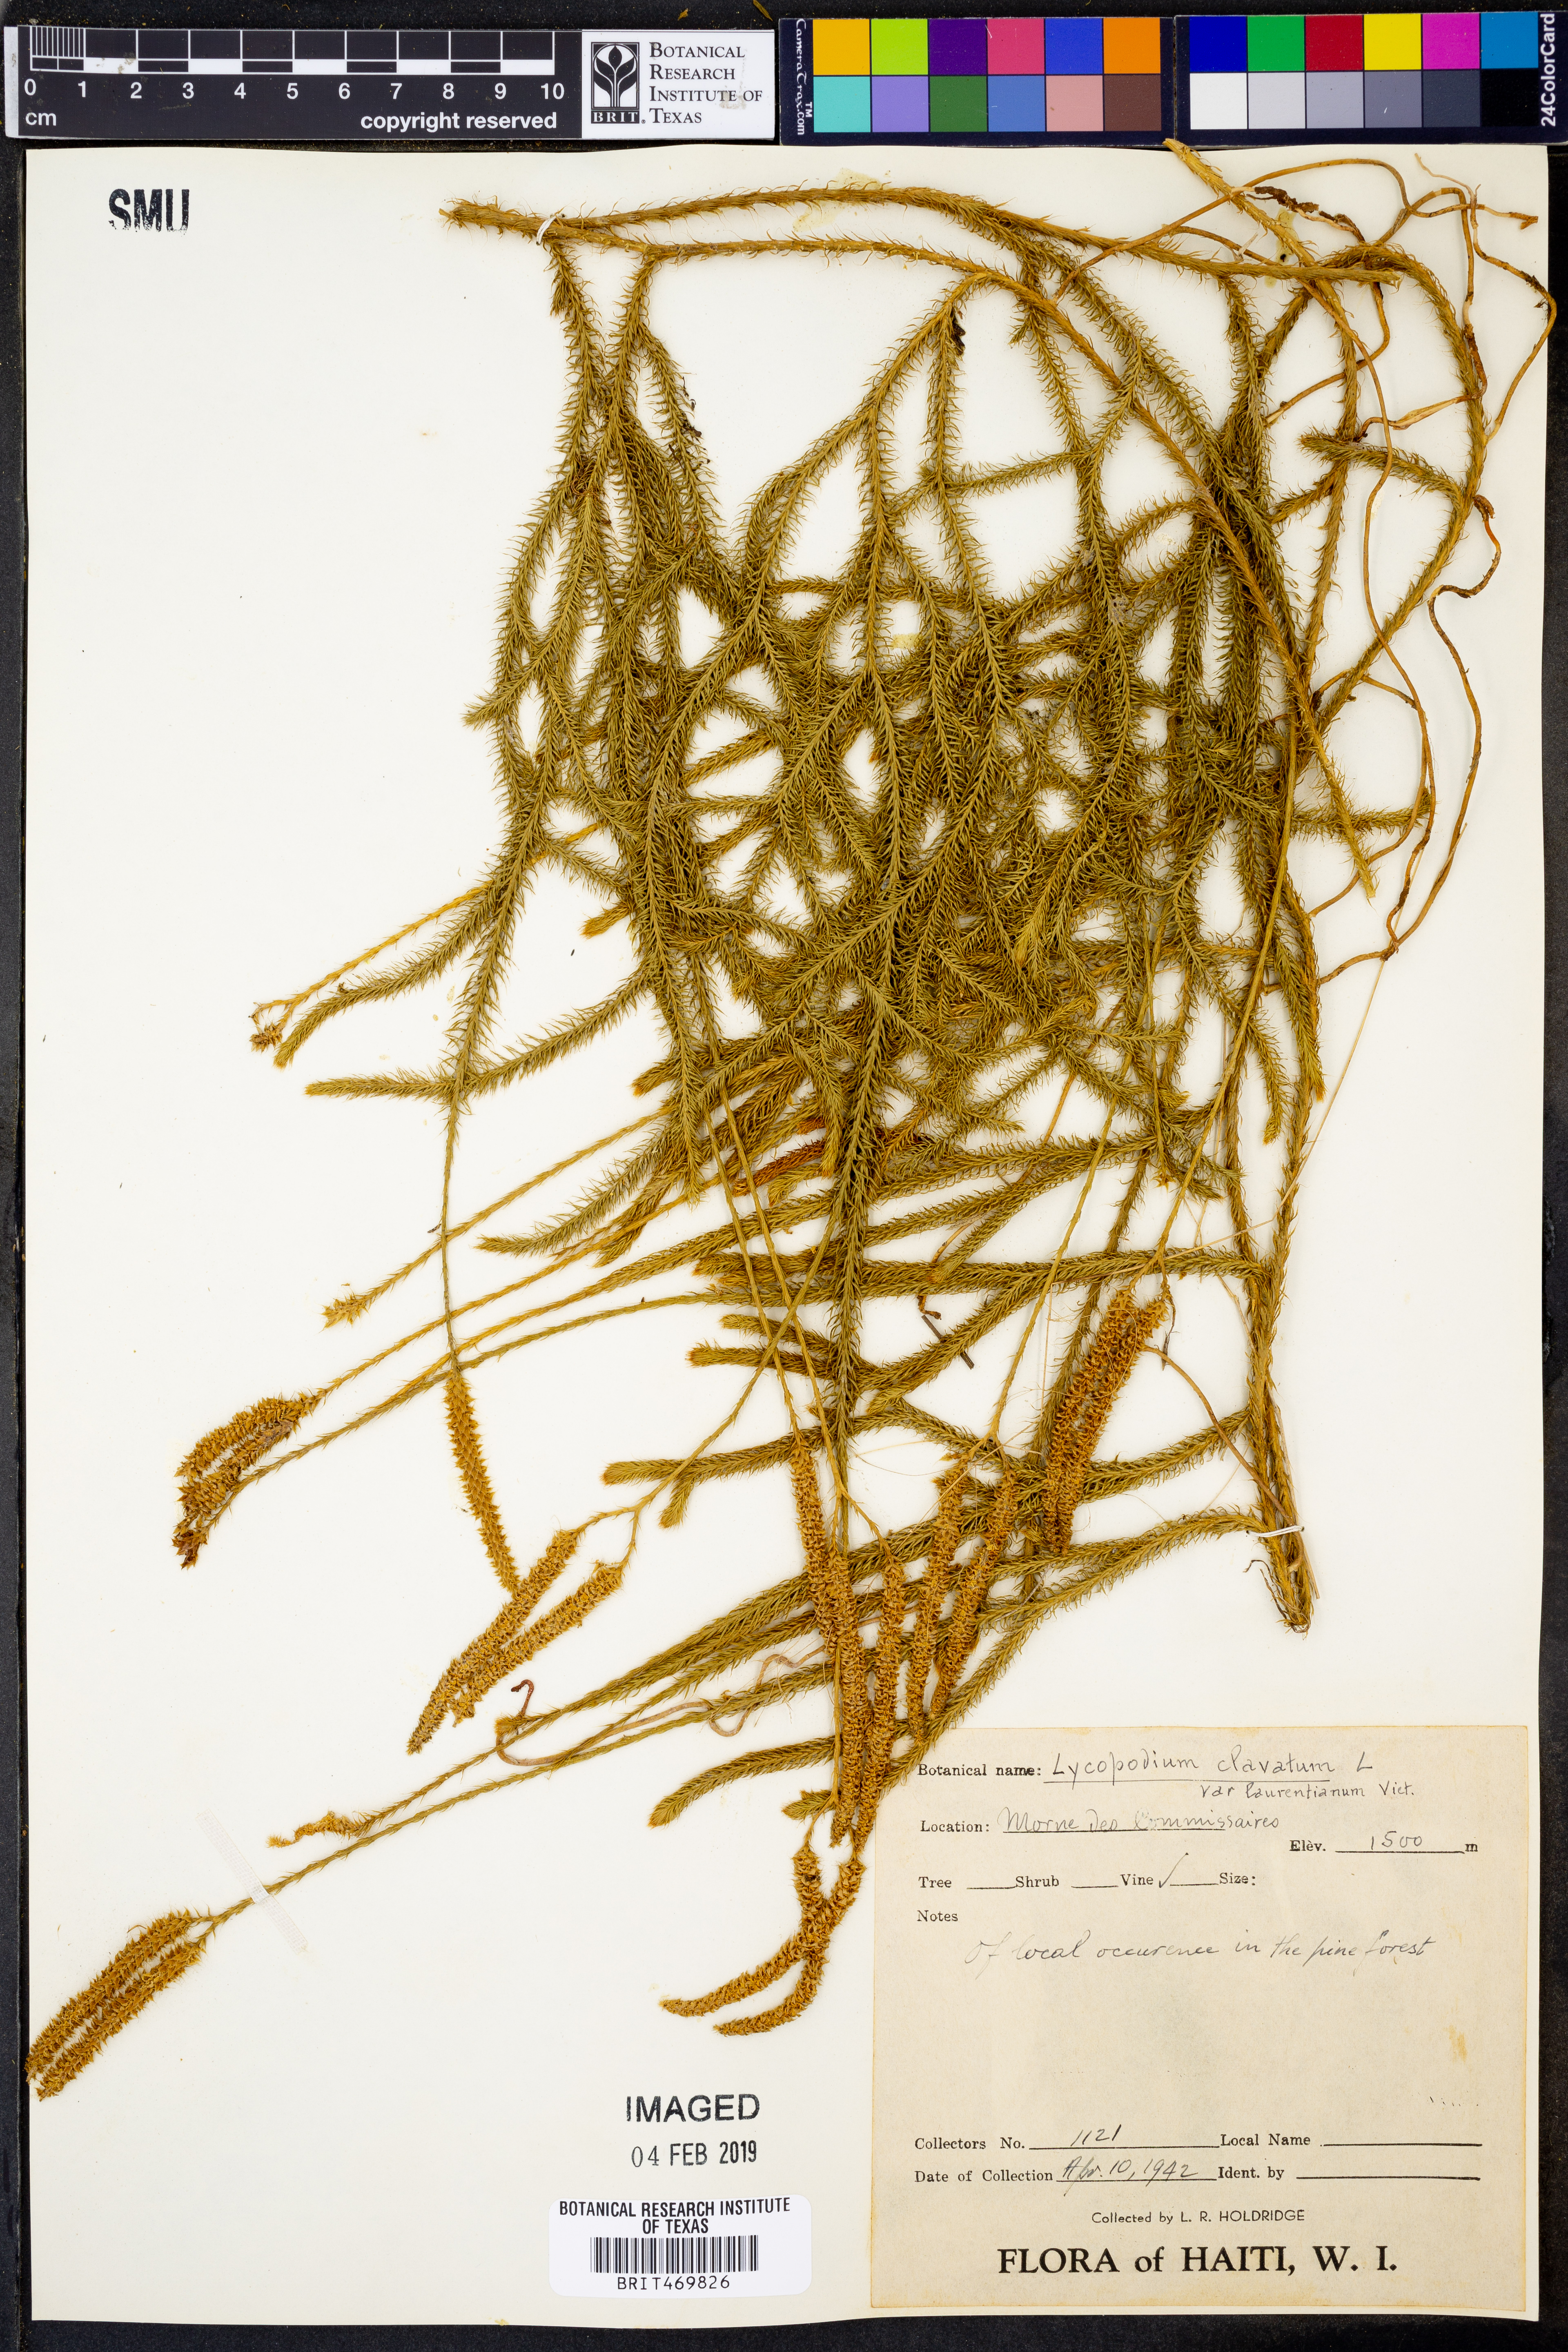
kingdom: Plantae
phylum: Tracheophyta
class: Lycopodiopsida
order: Lycopodiales
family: Lycopodiaceae
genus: Lycopodium
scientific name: Lycopodium clavatum
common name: Stag's-horn clubmoss
